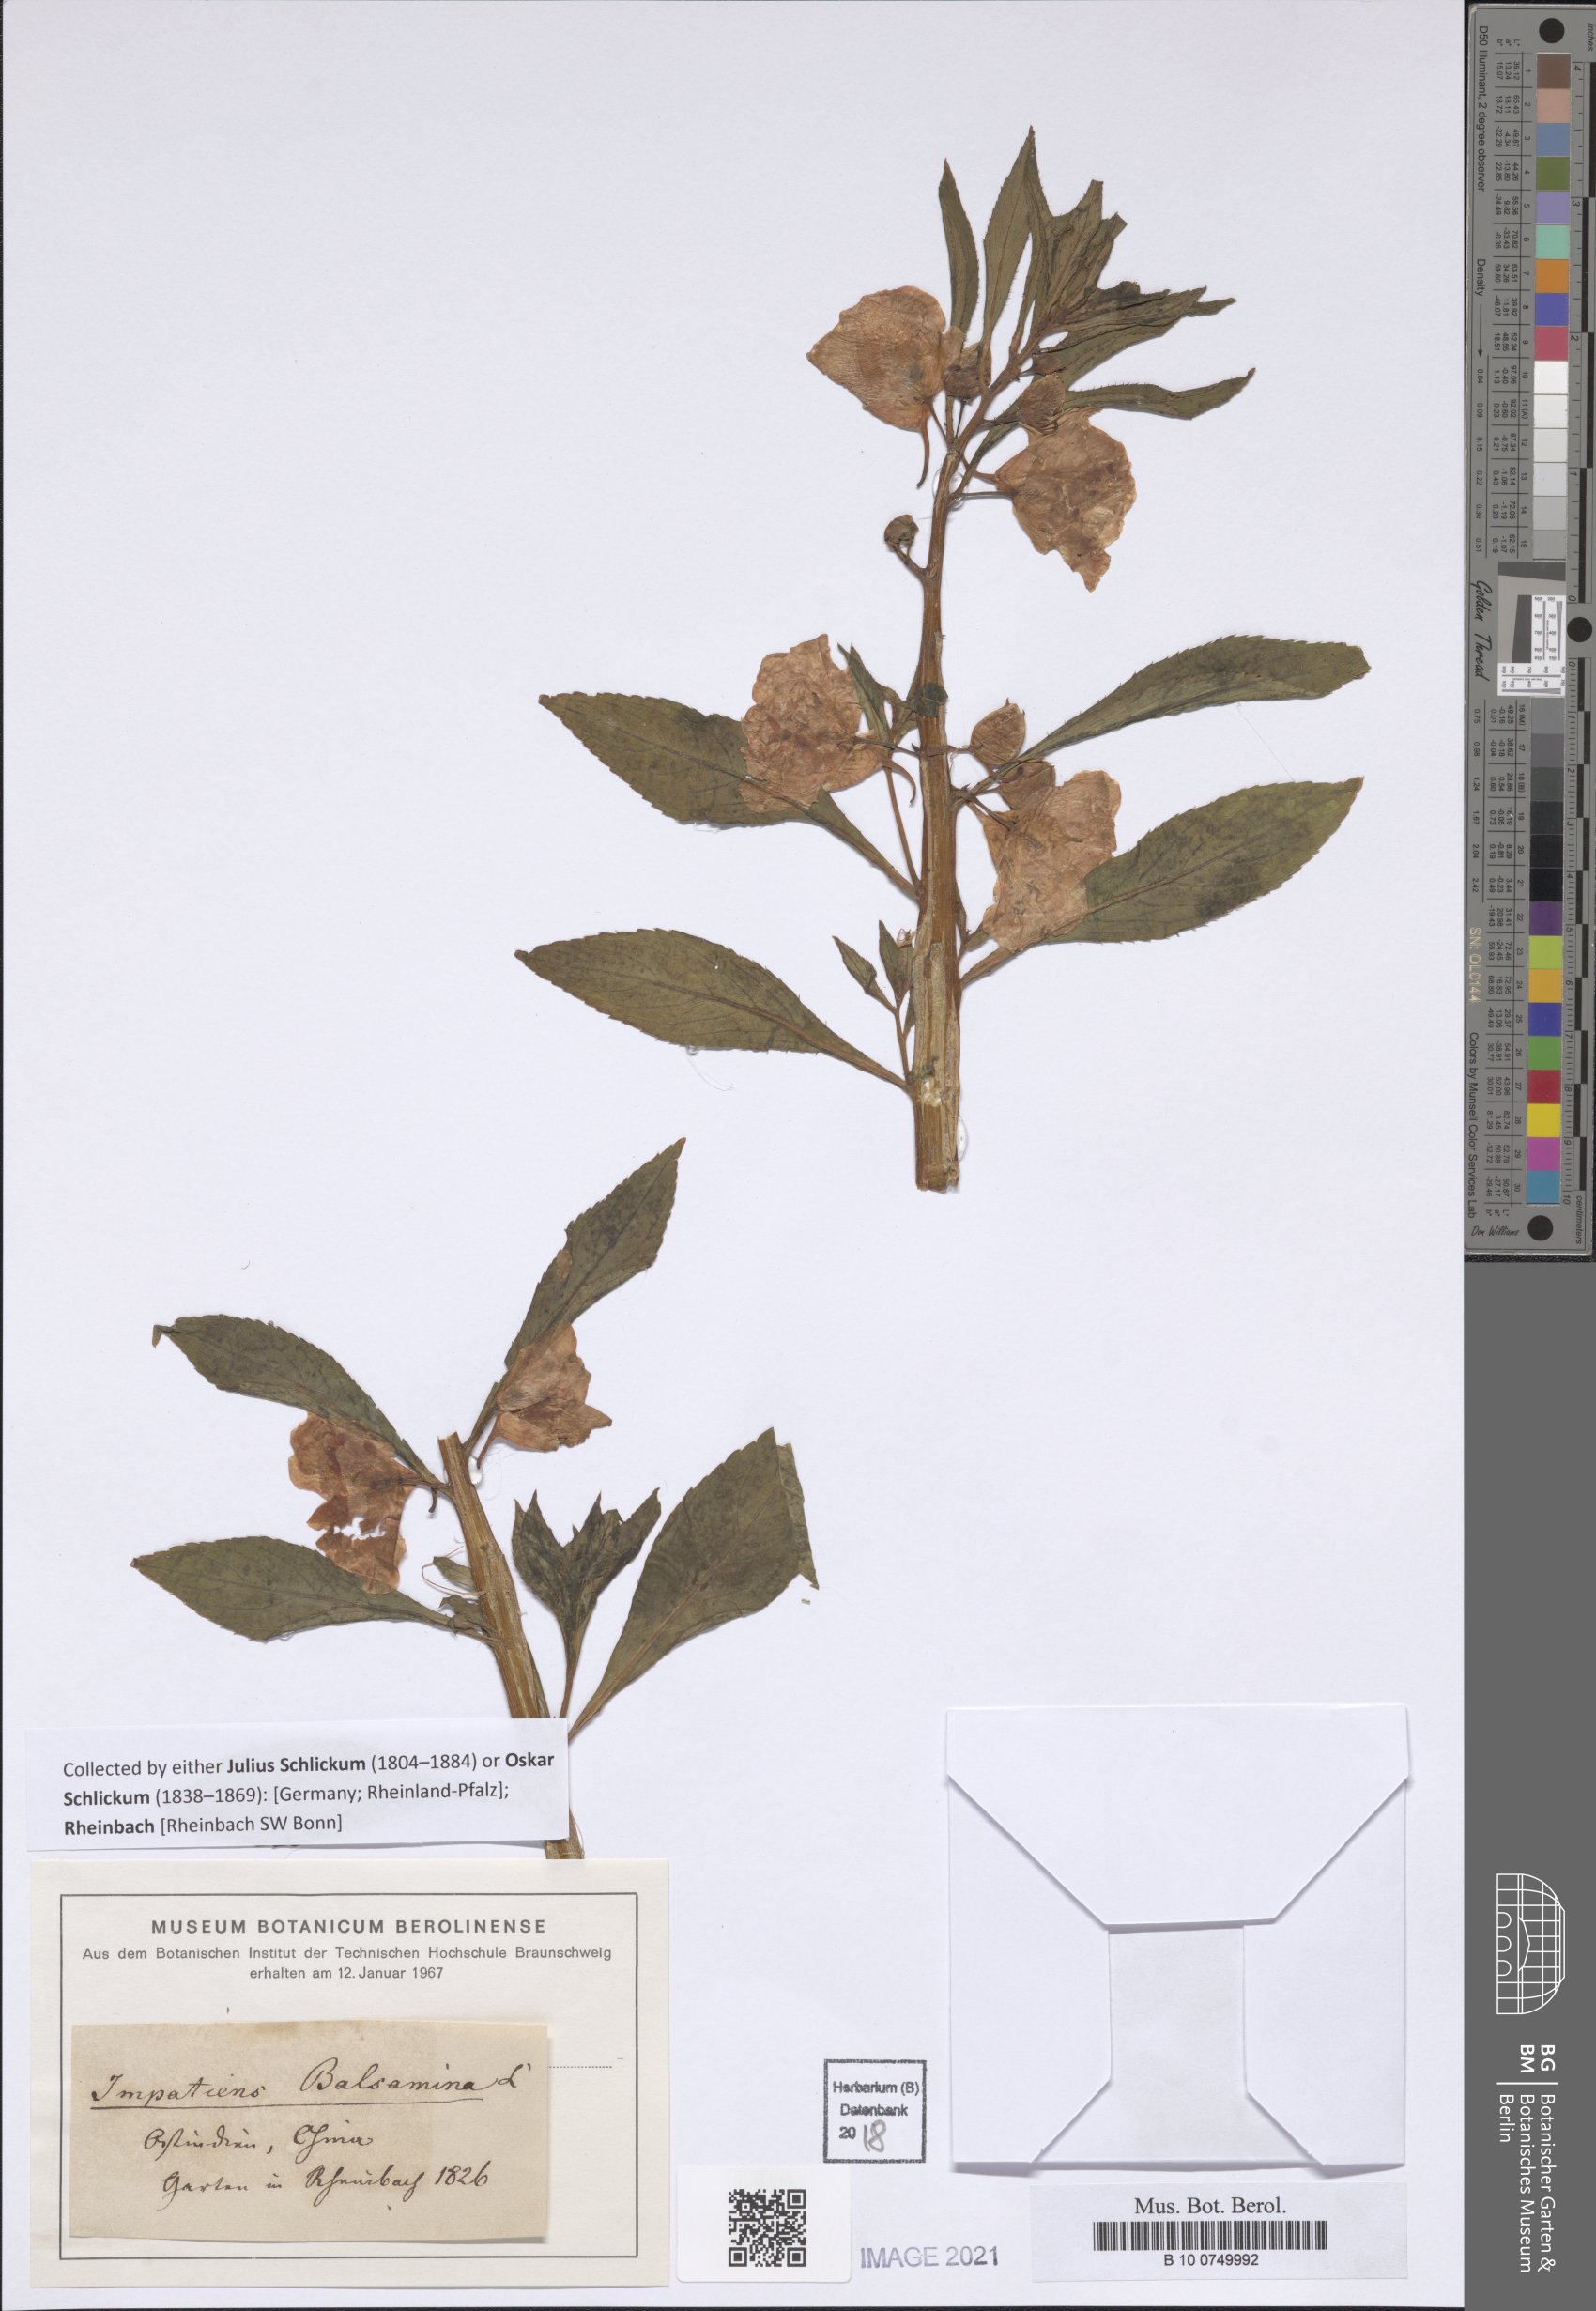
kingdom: Plantae
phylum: Tracheophyta
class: Magnoliopsida
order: Ericales
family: Balsaminaceae
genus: Impatiens
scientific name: Impatiens balsamina
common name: Balsam
